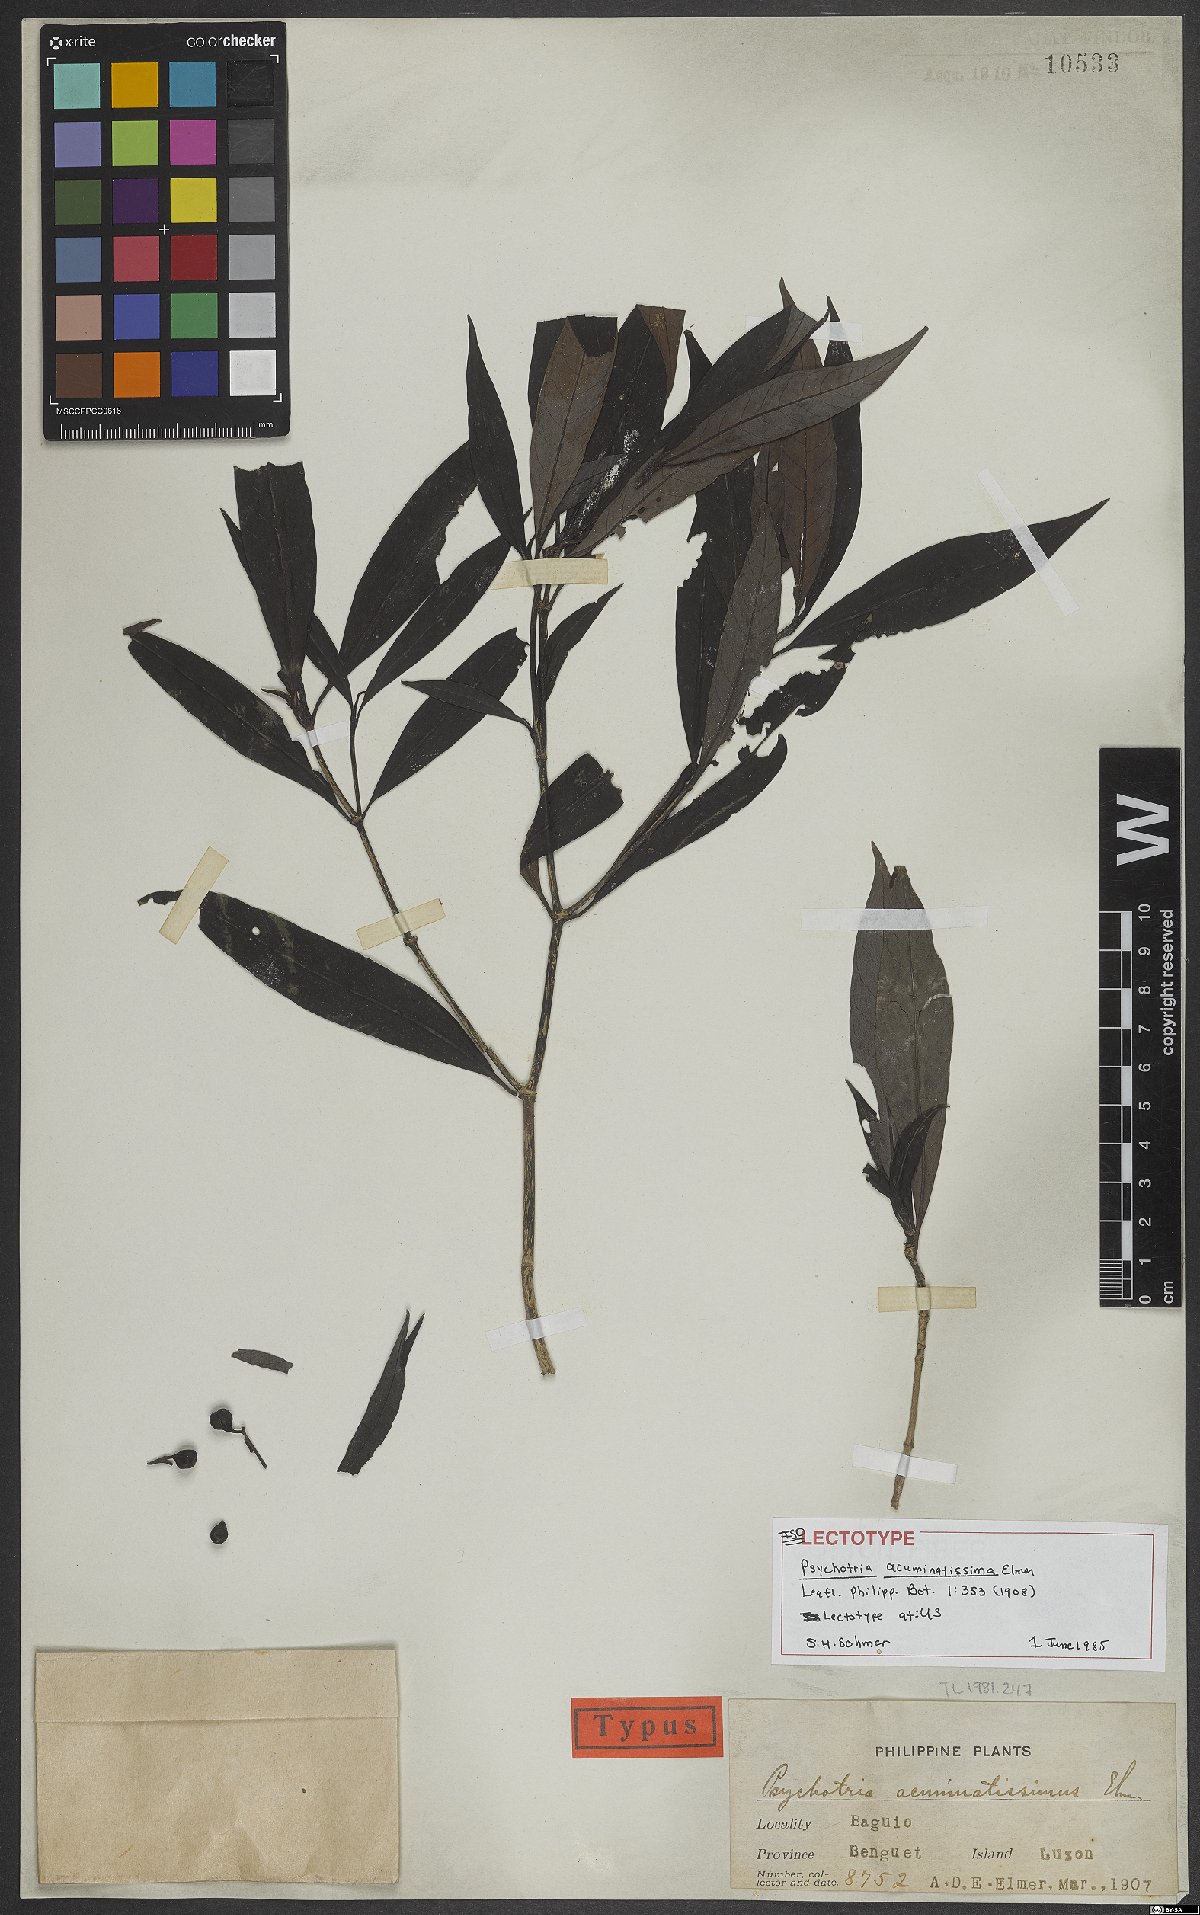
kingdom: Plantae
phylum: Tracheophyta
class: Magnoliopsida
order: Gentianales
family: Rubiaceae
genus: Psychotria
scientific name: Psychotria acuminatissima
